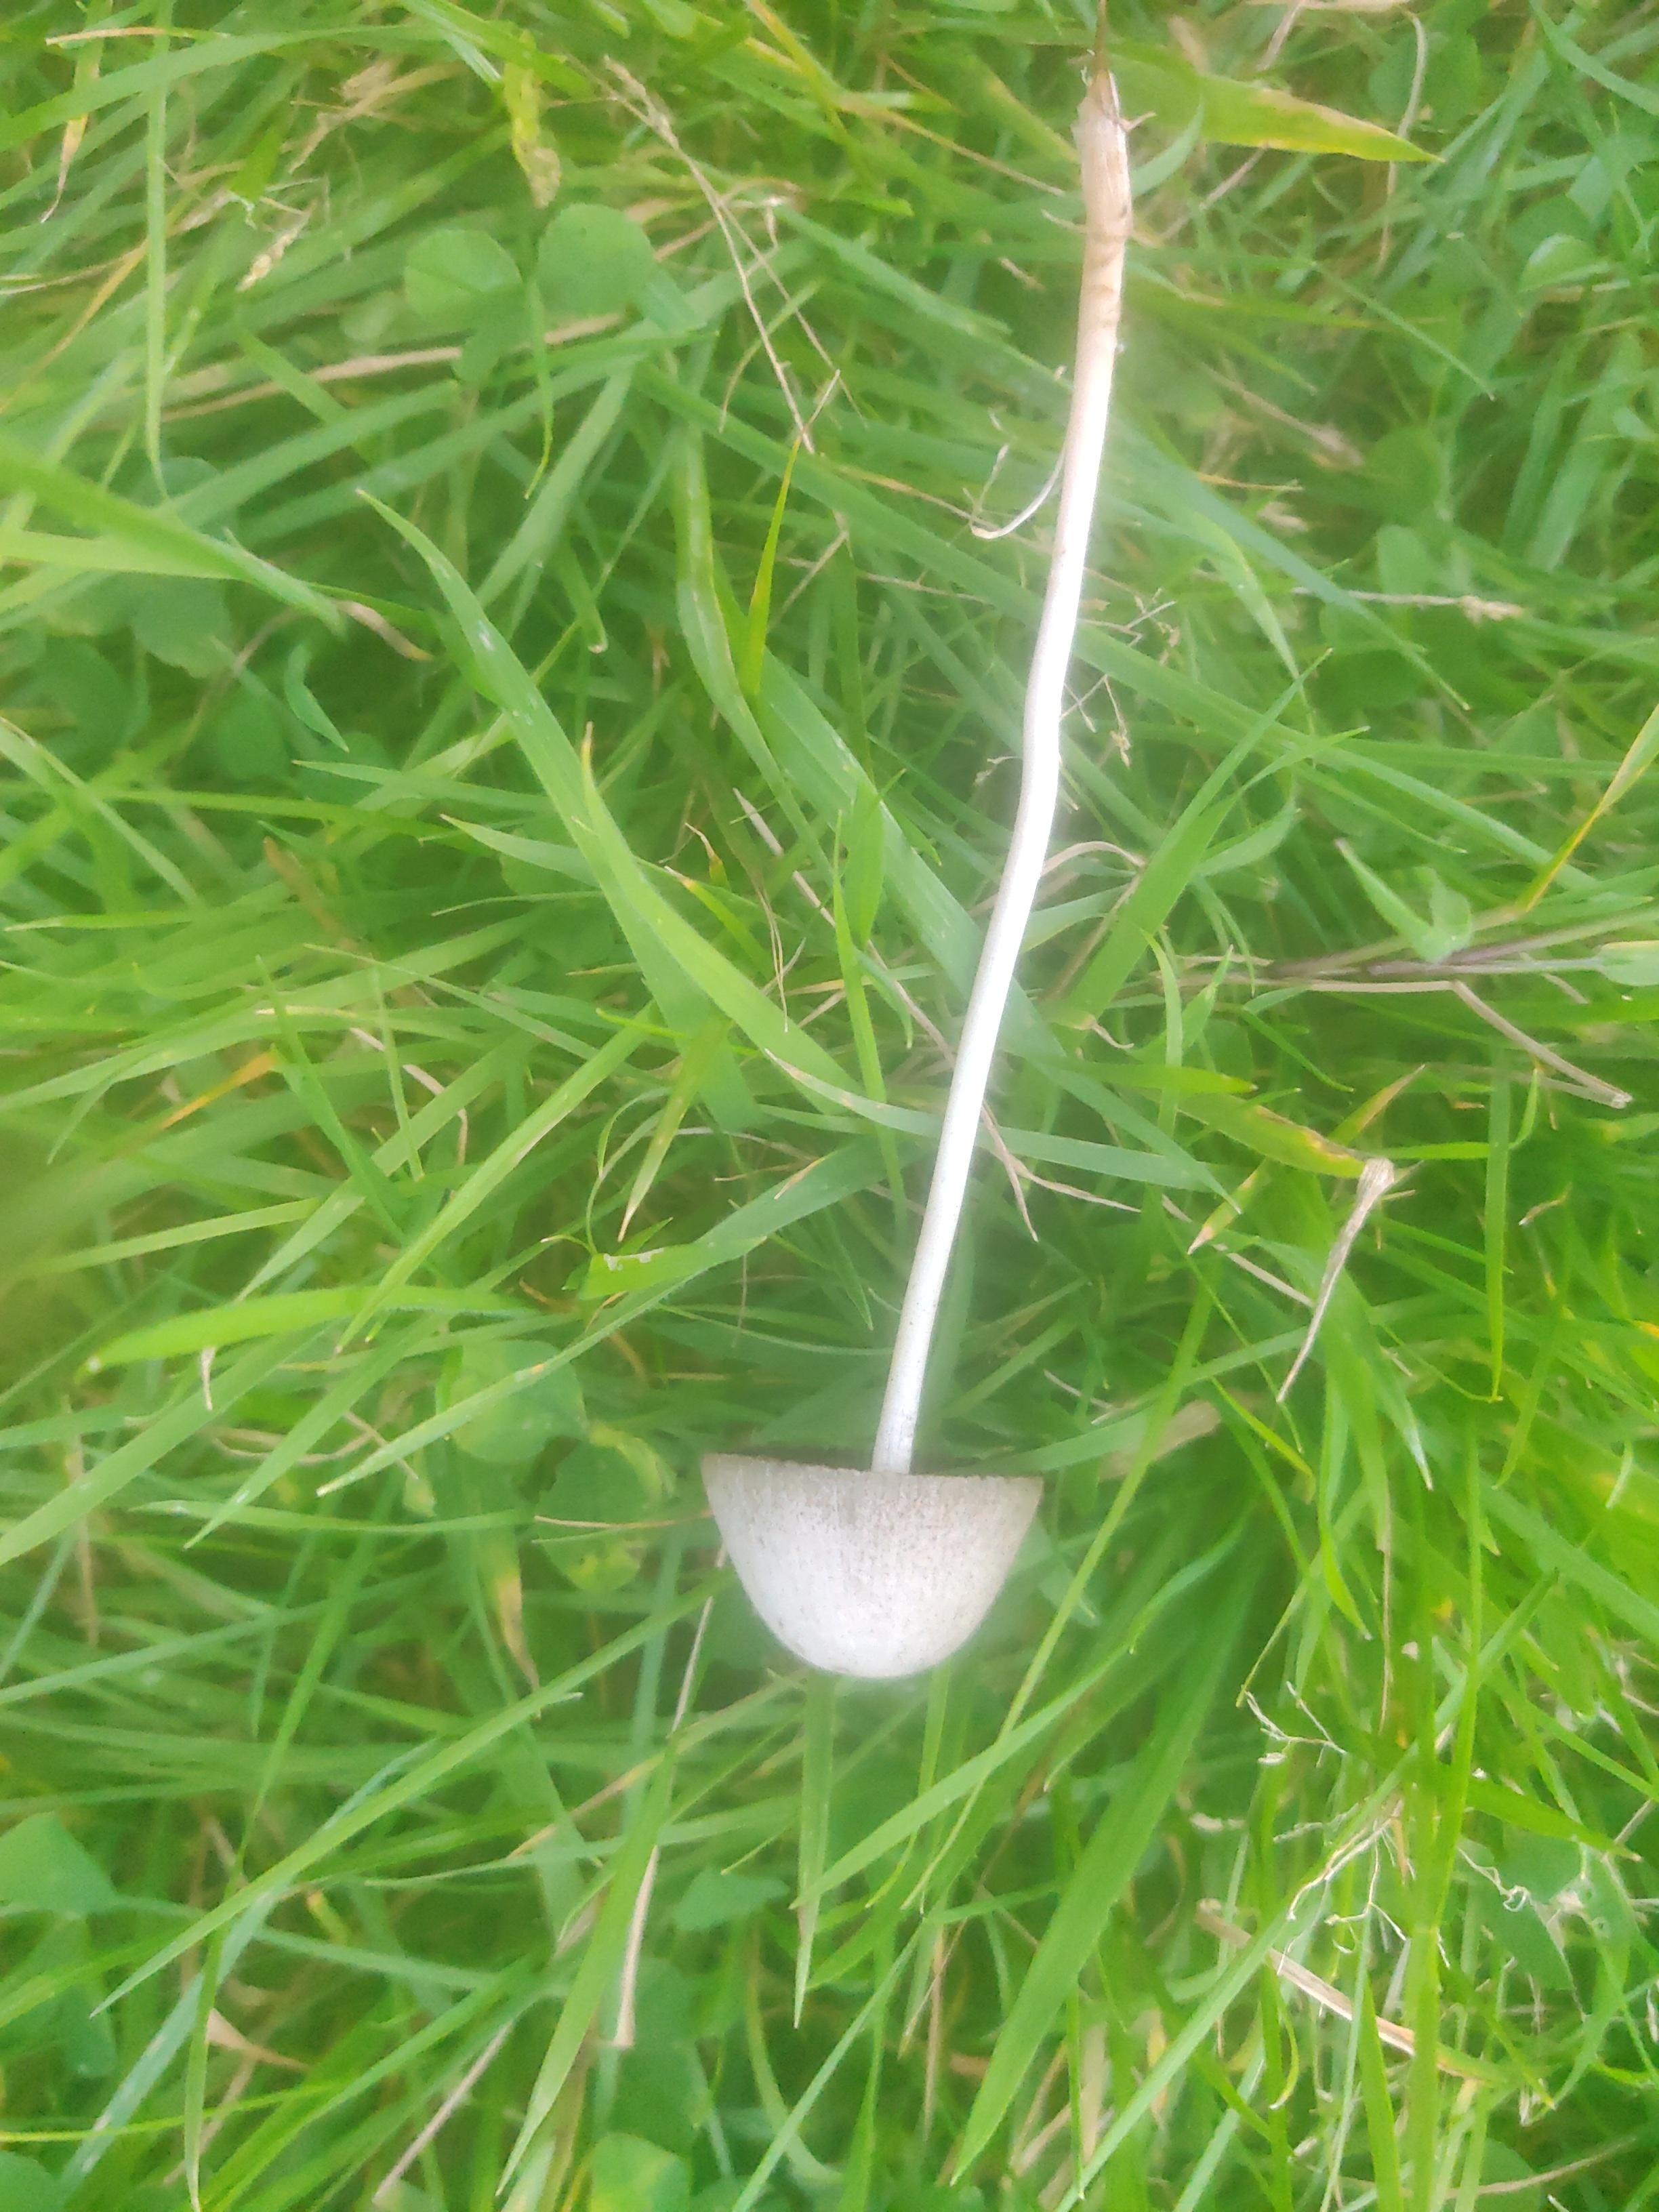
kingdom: Fungi
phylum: Basidiomycota
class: Agaricomycetes
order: Agaricales
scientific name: Agaricales
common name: champignonordenen
